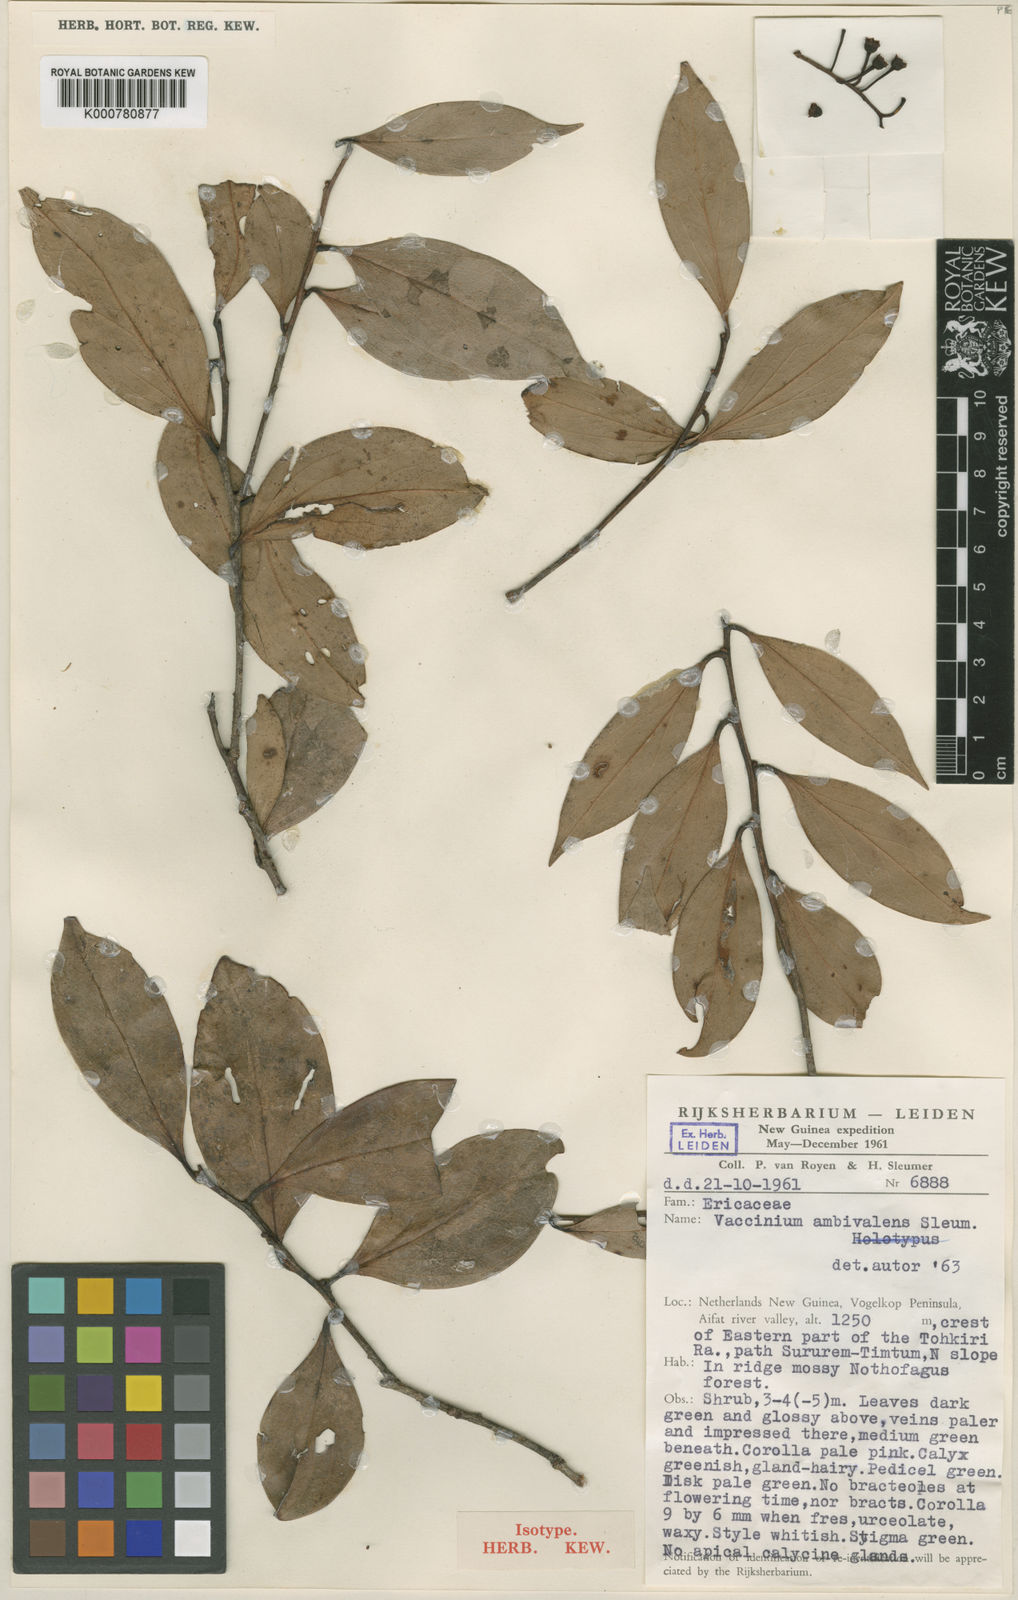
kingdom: Plantae
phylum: Tracheophyta
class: Magnoliopsida
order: Ericales
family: Ericaceae
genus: Vaccinium
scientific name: Vaccinium ambivalens
